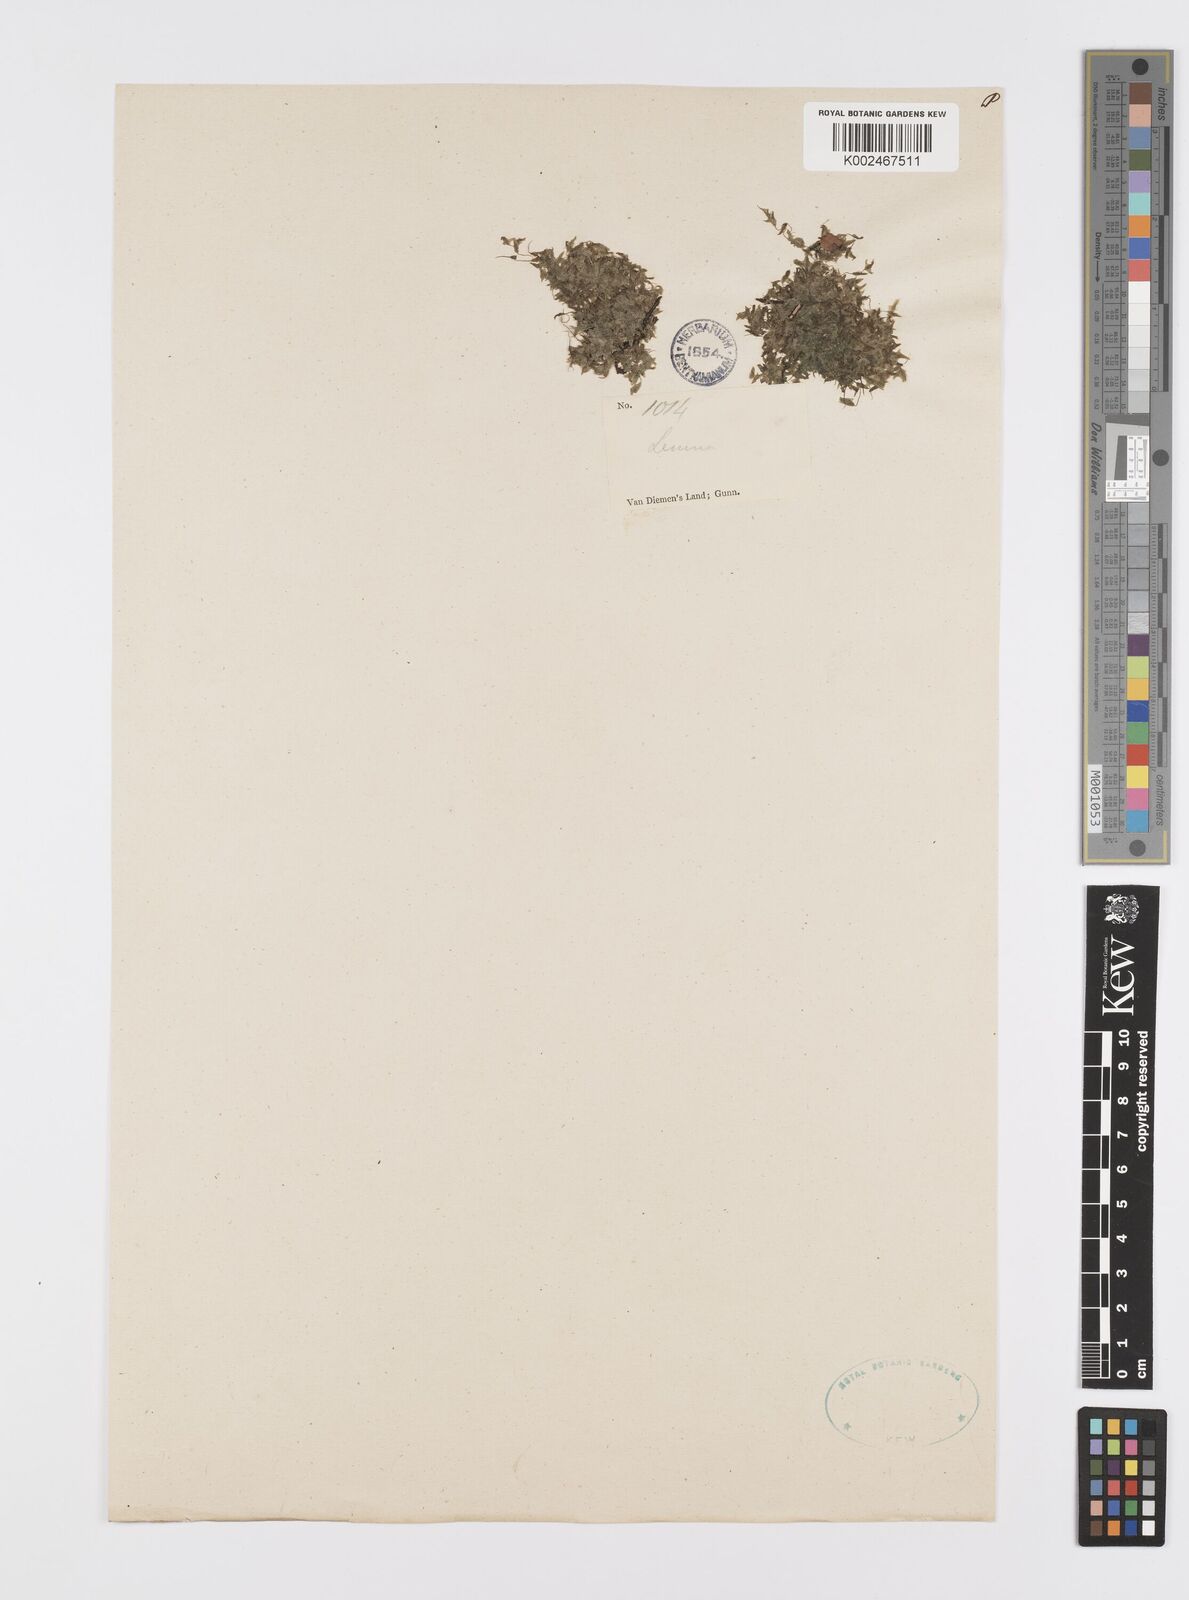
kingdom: Plantae
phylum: Tracheophyta
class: Liliopsida
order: Alismatales
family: Araceae
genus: Spirodela
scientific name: Spirodela polyrhiza
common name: Great duckweed
